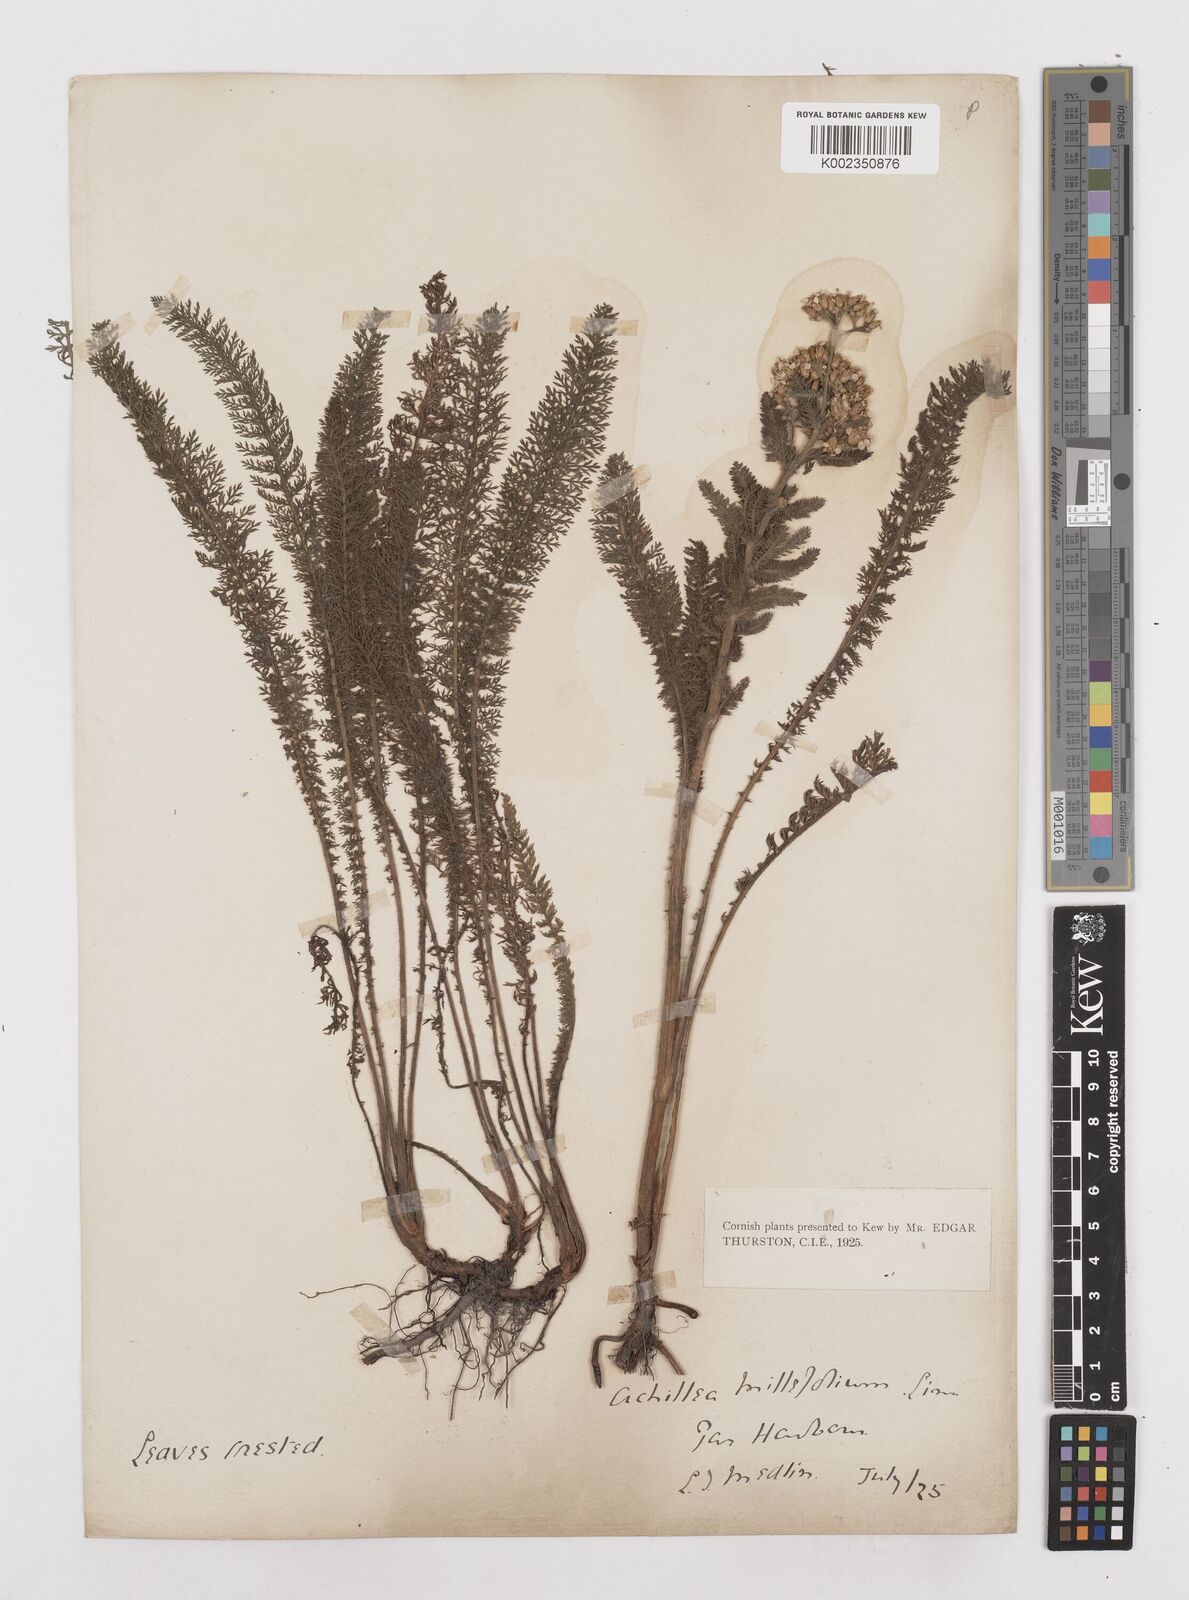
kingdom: Plantae
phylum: Tracheophyta
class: Magnoliopsida
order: Asterales
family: Asteraceae
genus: Achillea
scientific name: Achillea millefolium
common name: Yarrow
